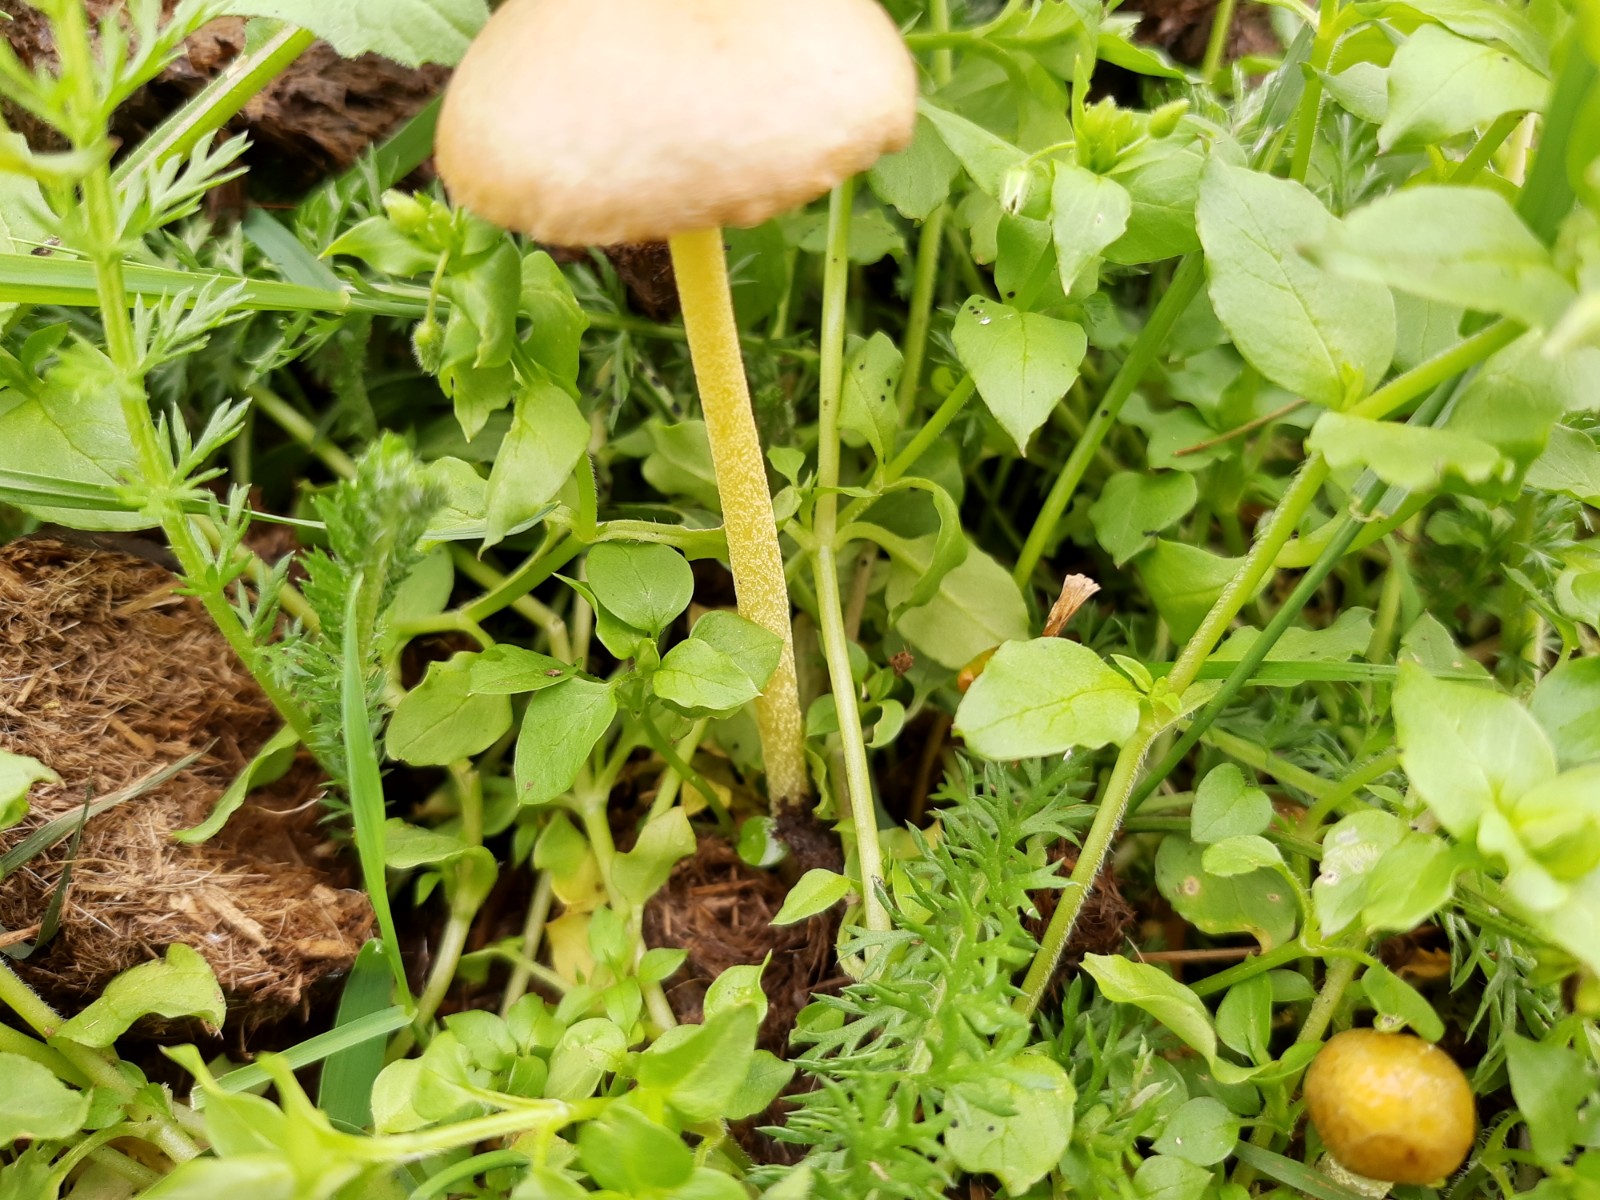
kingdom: Fungi
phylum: Basidiomycota
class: Agaricomycetes
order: Agaricales
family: Bolbitiaceae
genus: Bolbitius
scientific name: Bolbitius titubans
